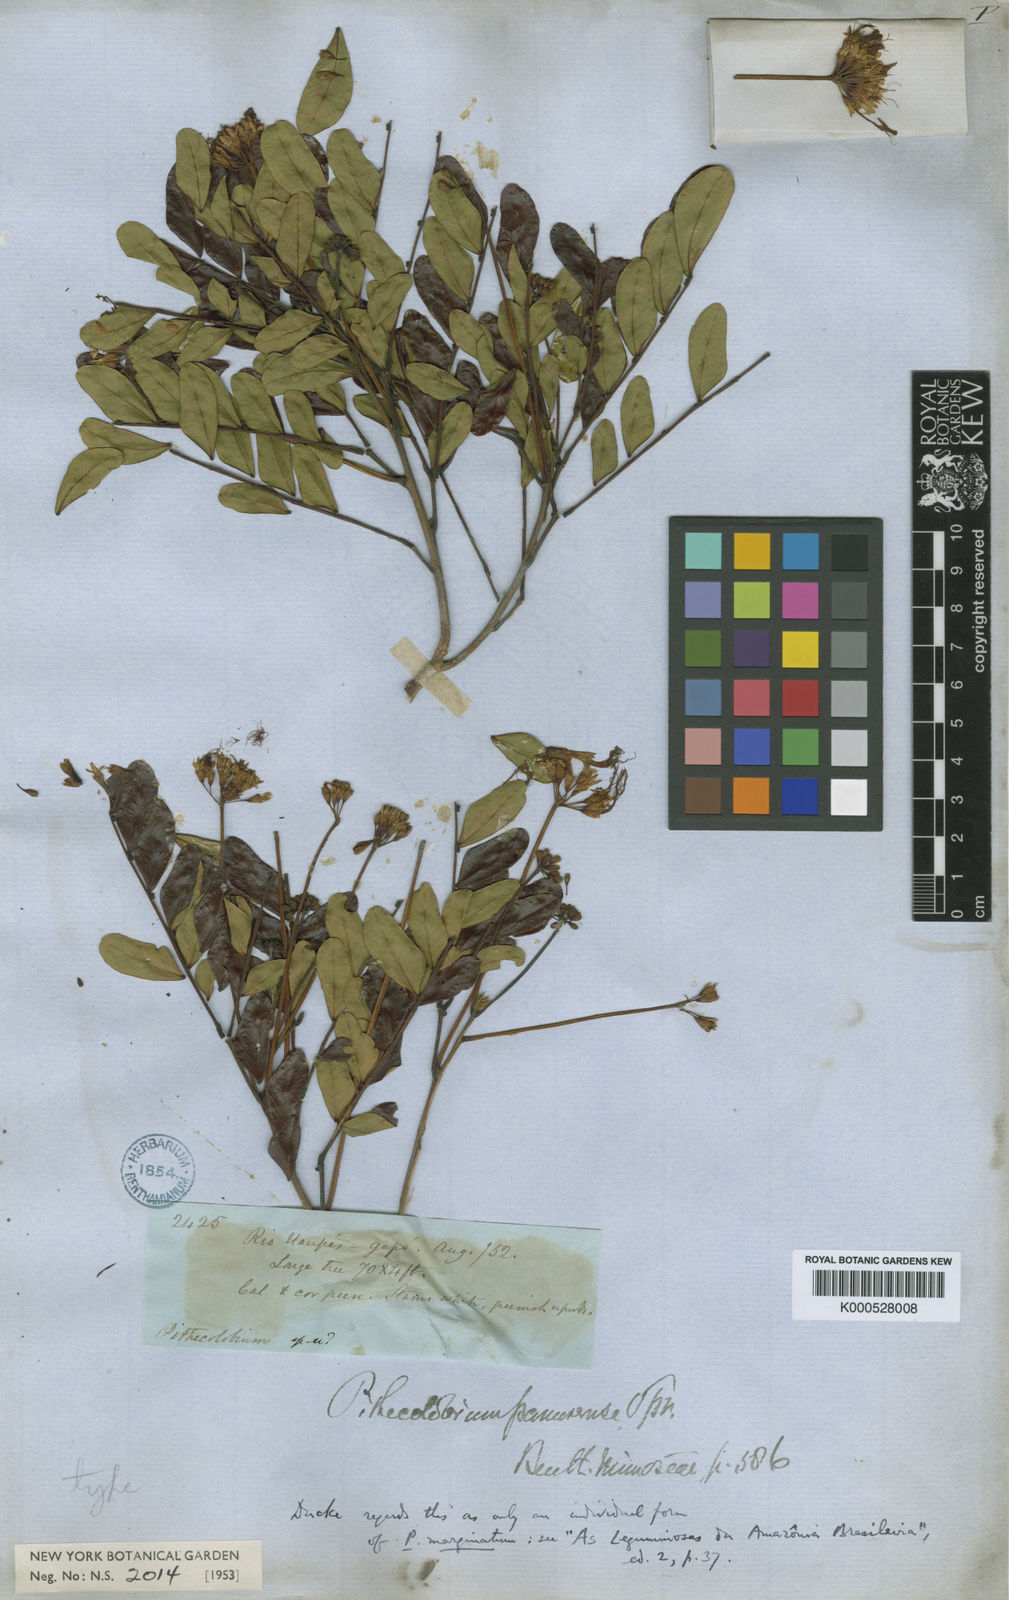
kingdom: Plantae
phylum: Tracheophyta
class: Magnoliopsida
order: Fabales
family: Fabaceae
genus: Hydrochorea
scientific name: Hydrochorea corymbosa
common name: Swamp manariballi
